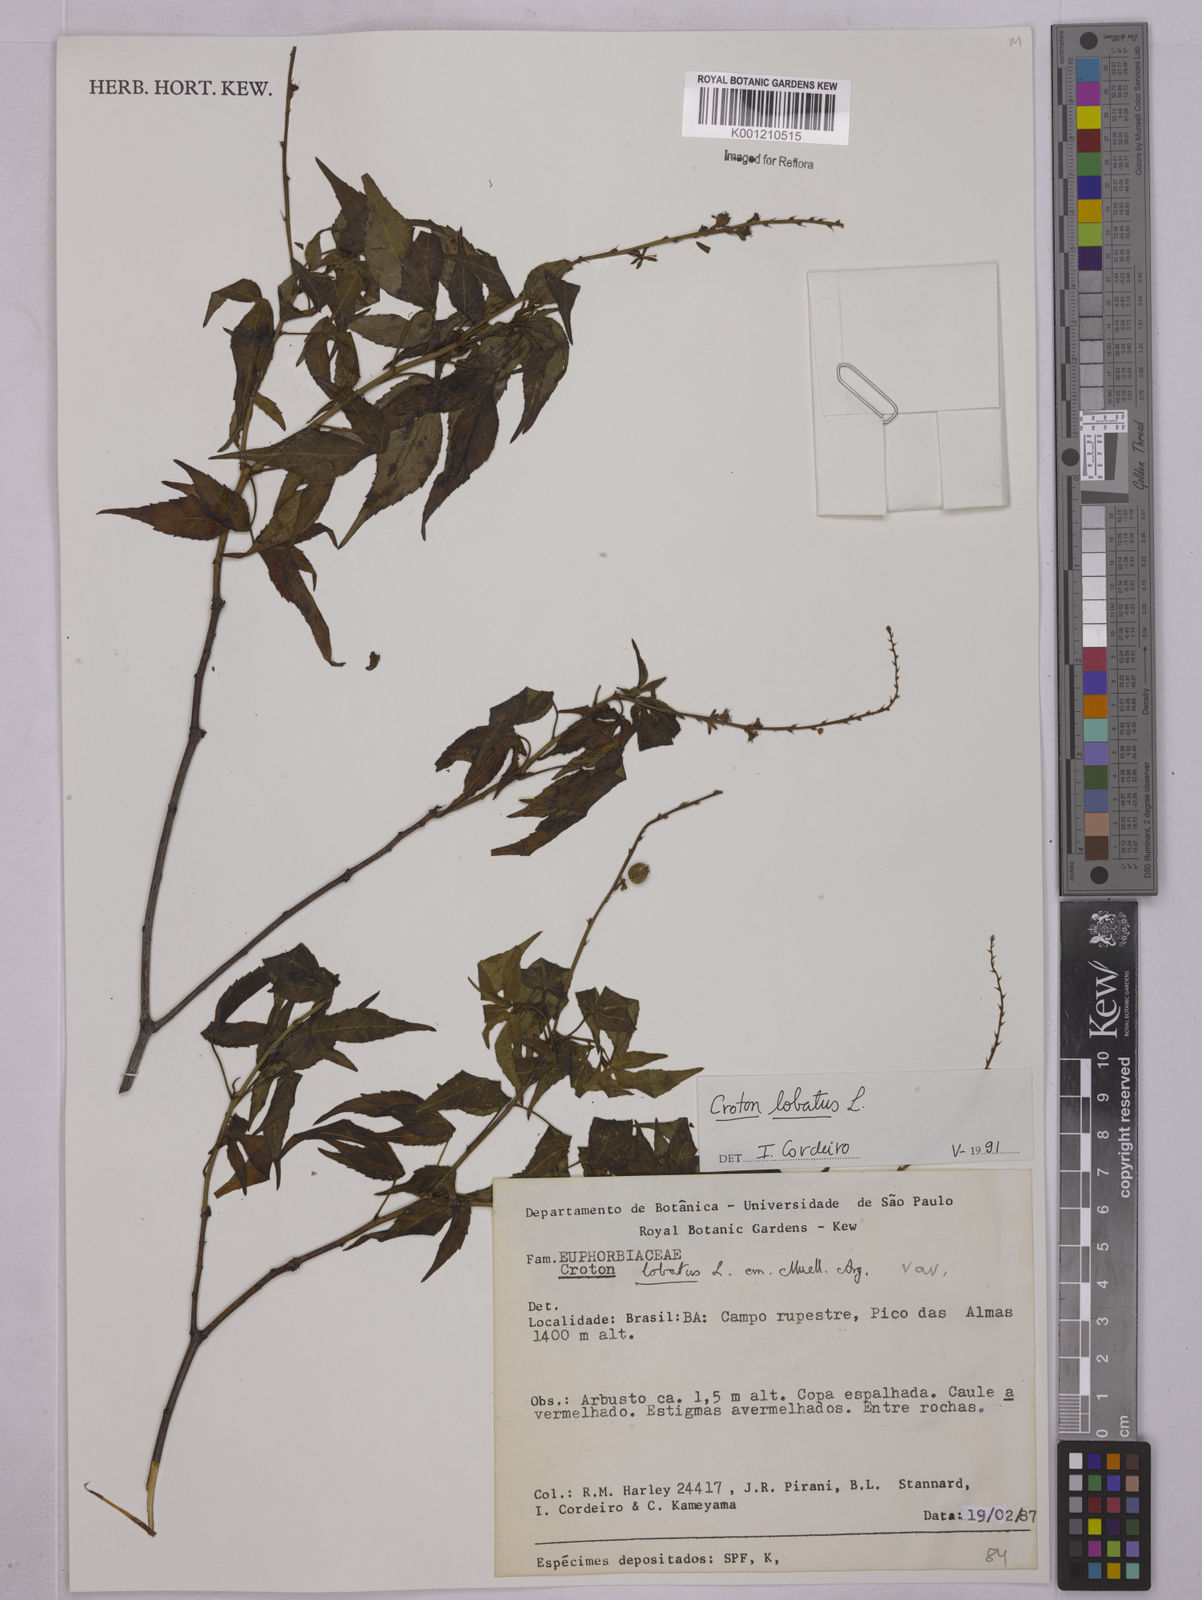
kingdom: Plantae
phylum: Tracheophyta
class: Magnoliopsida
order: Malpighiales
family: Euphorbiaceae
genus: Astraea
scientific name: Astraea lobata
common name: Lobed croton
